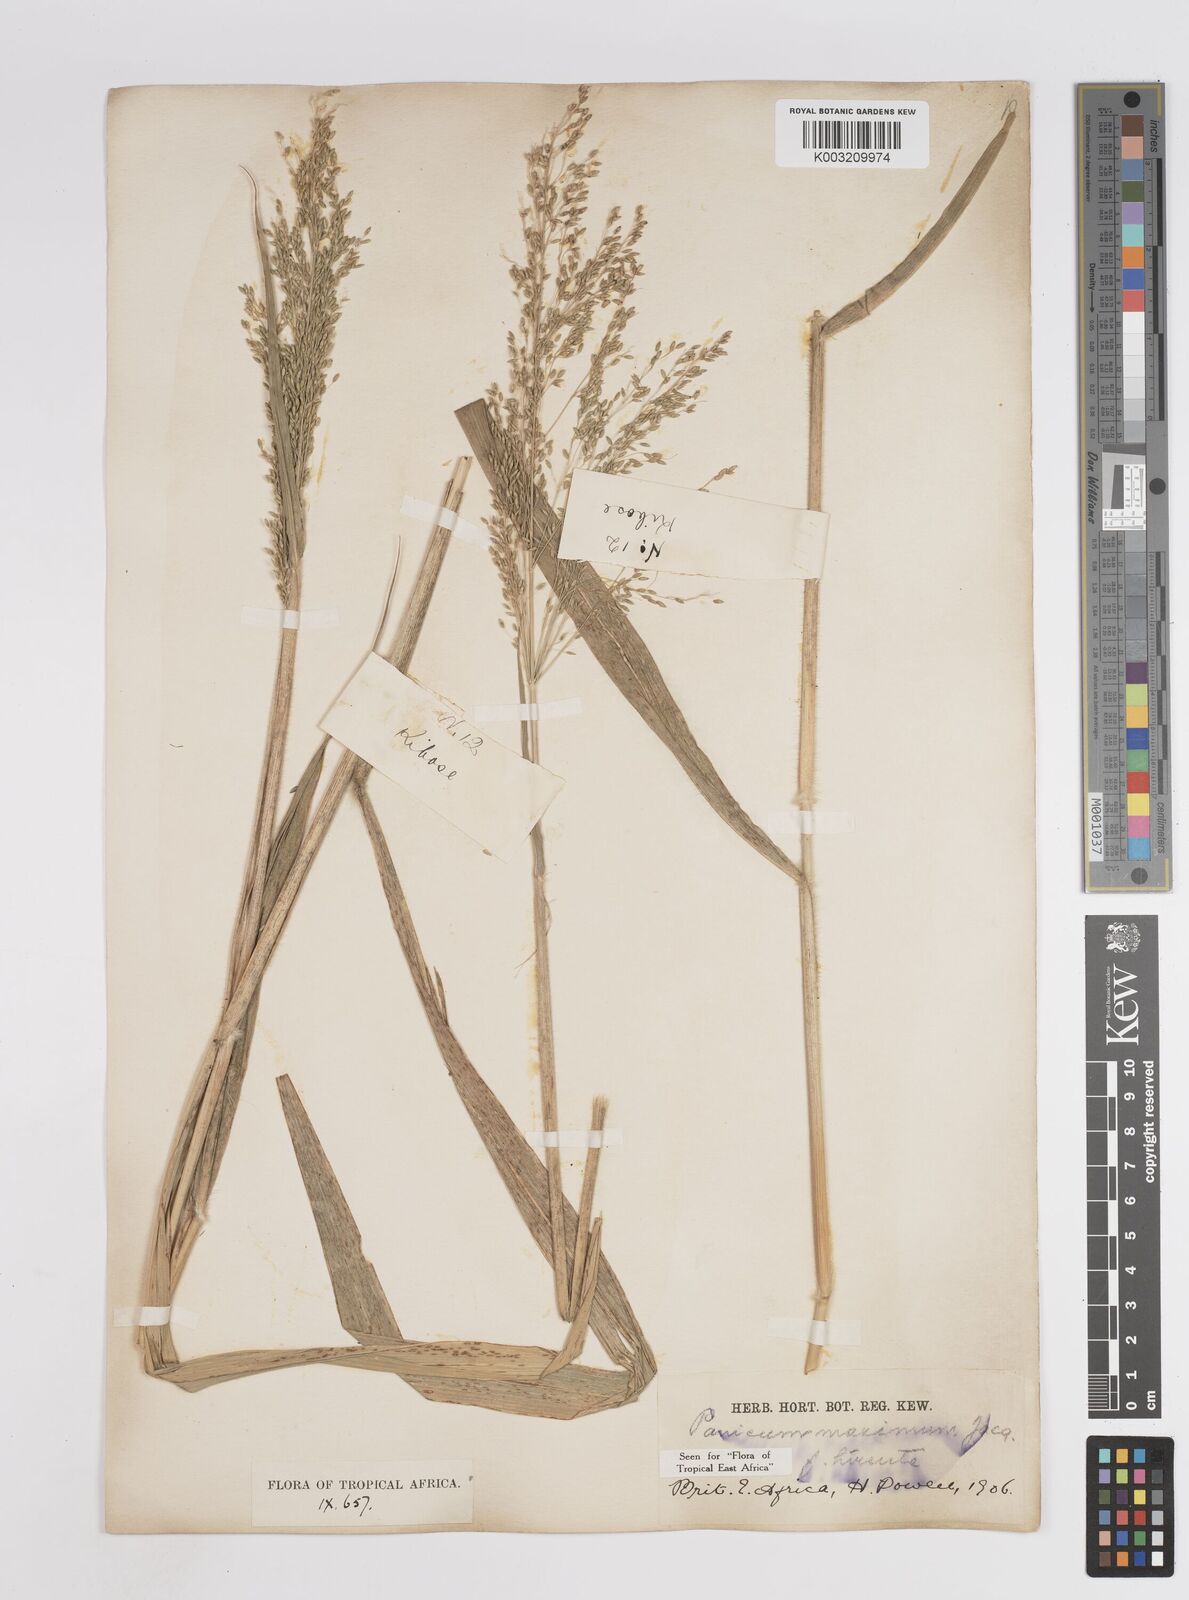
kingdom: Plantae
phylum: Tracheophyta
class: Liliopsida
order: Poales
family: Poaceae
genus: Megathyrsus
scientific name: Megathyrsus maximus
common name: Guineagrass
